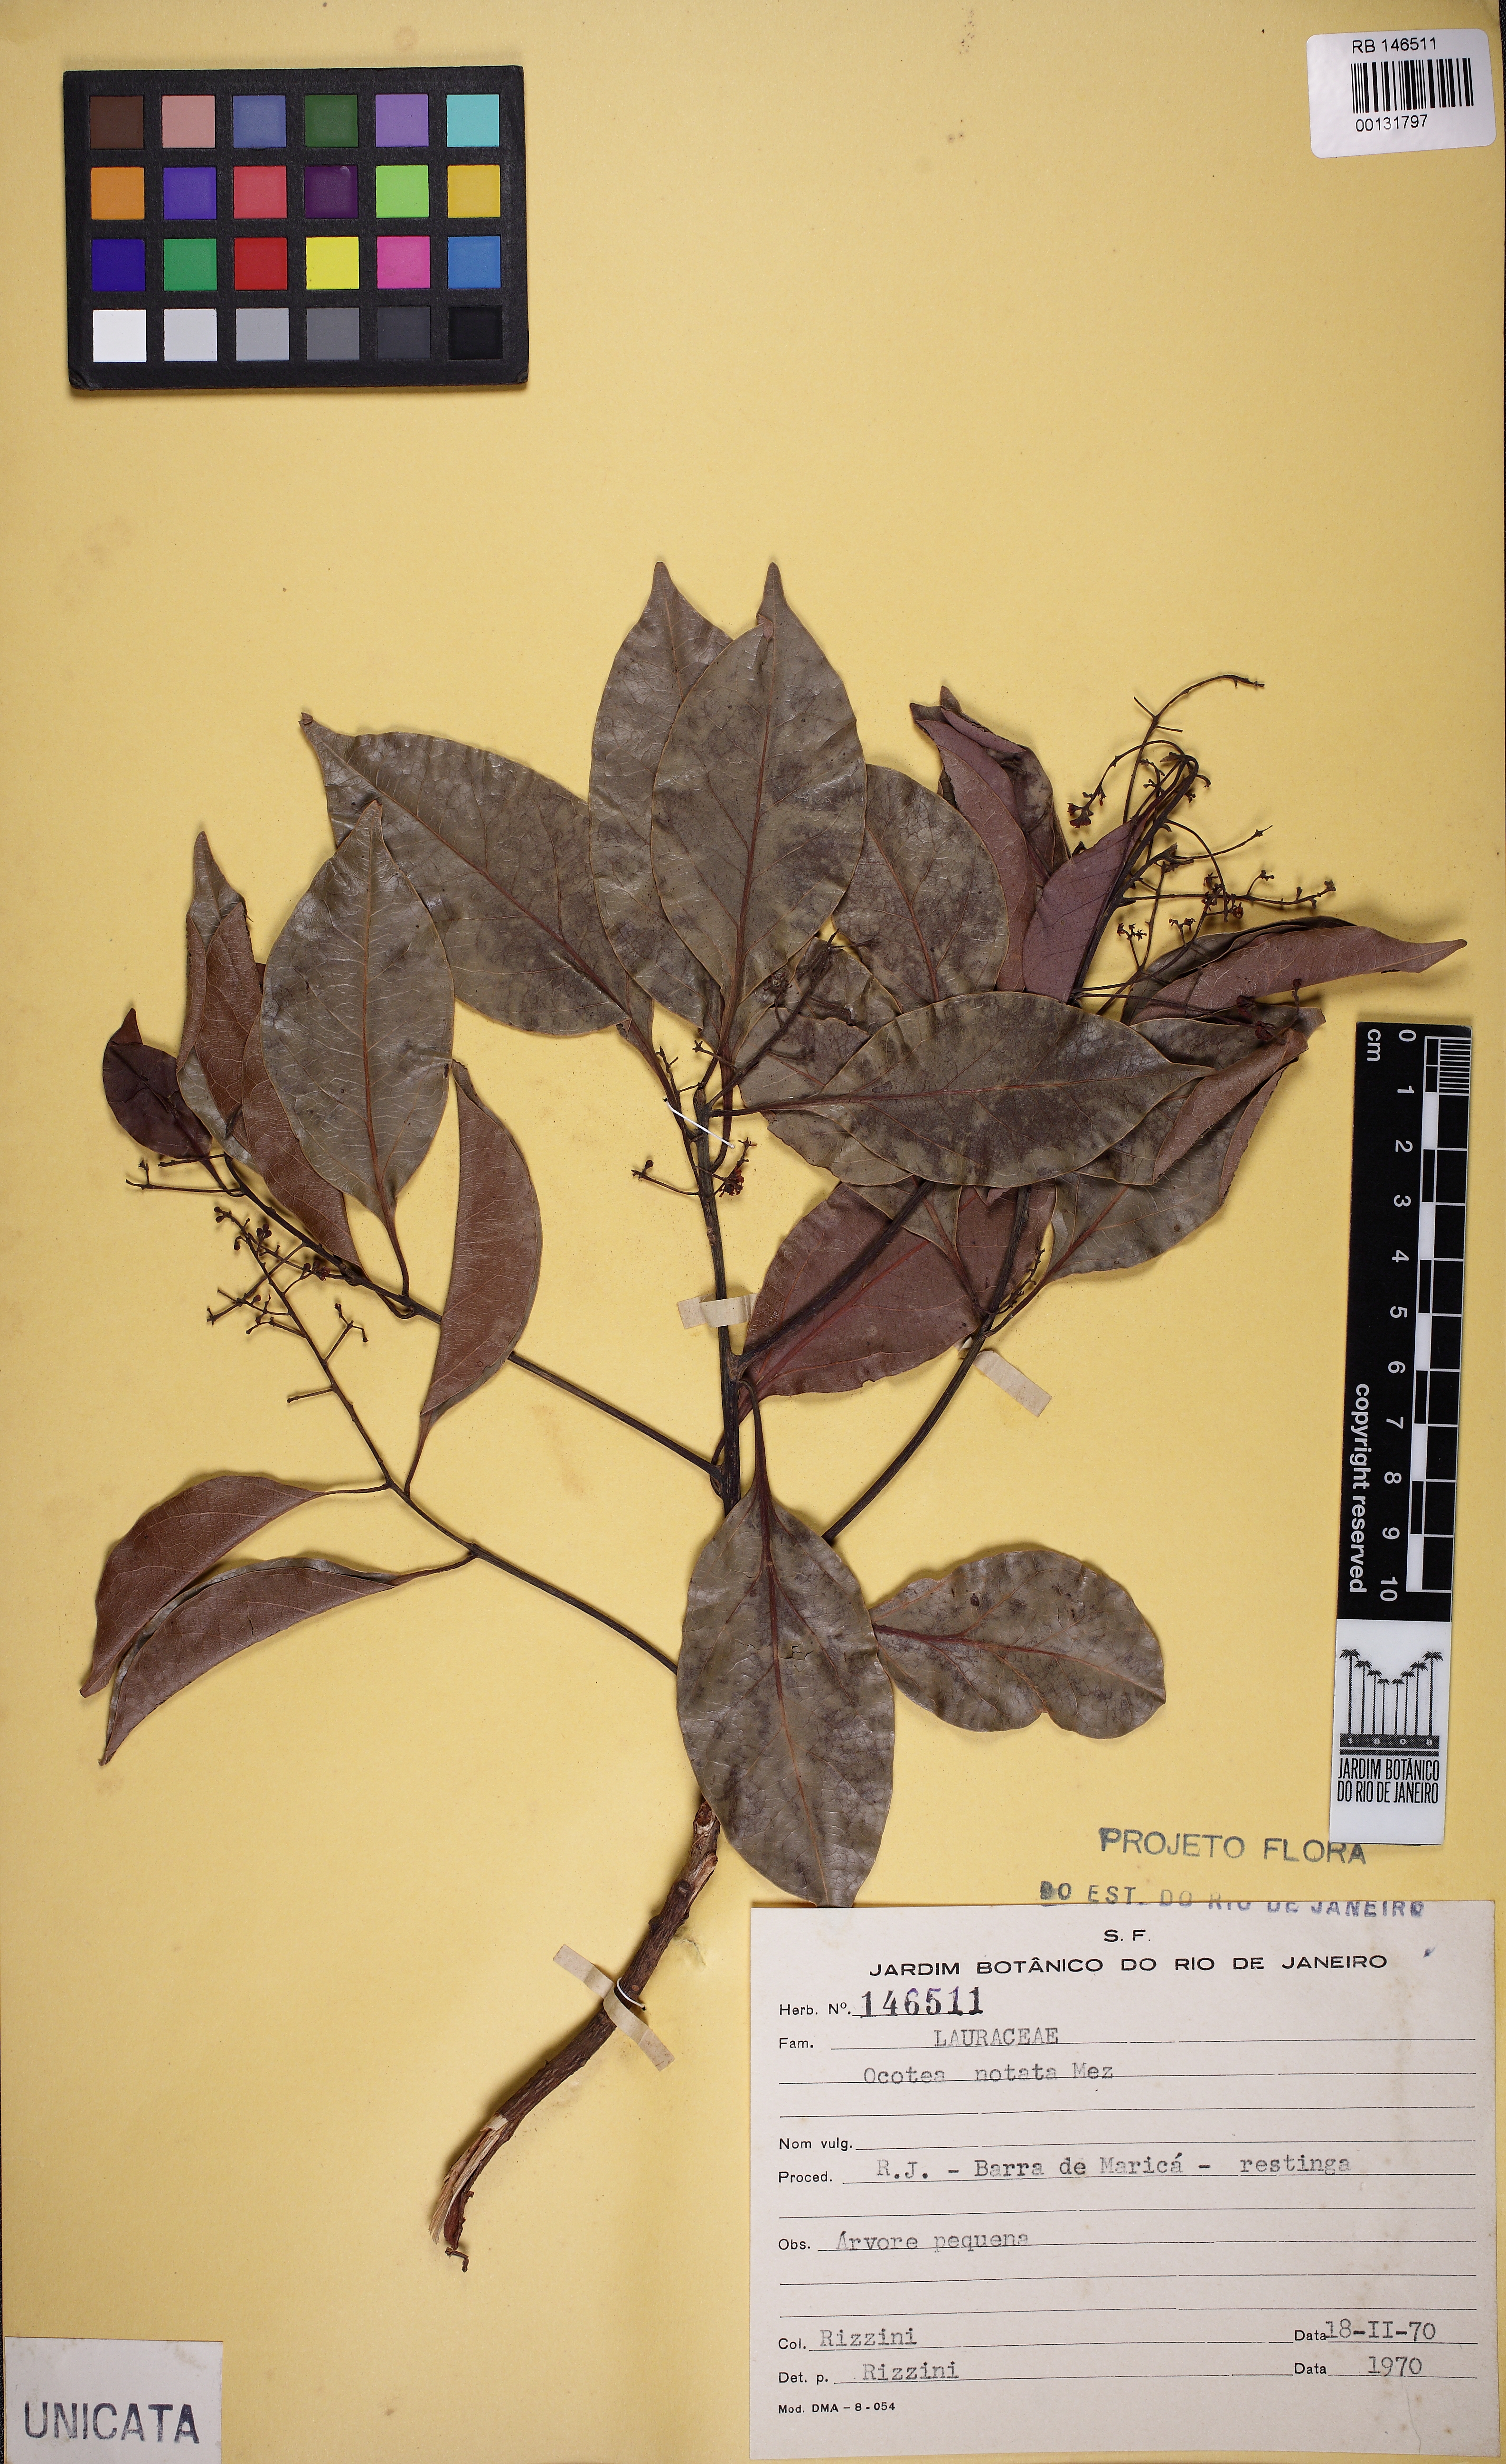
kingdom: Plantae
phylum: Tracheophyta
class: Magnoliopsida
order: Laurales
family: Lauraceae
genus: Mespilodaphne
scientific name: Mespilodaphne notata
